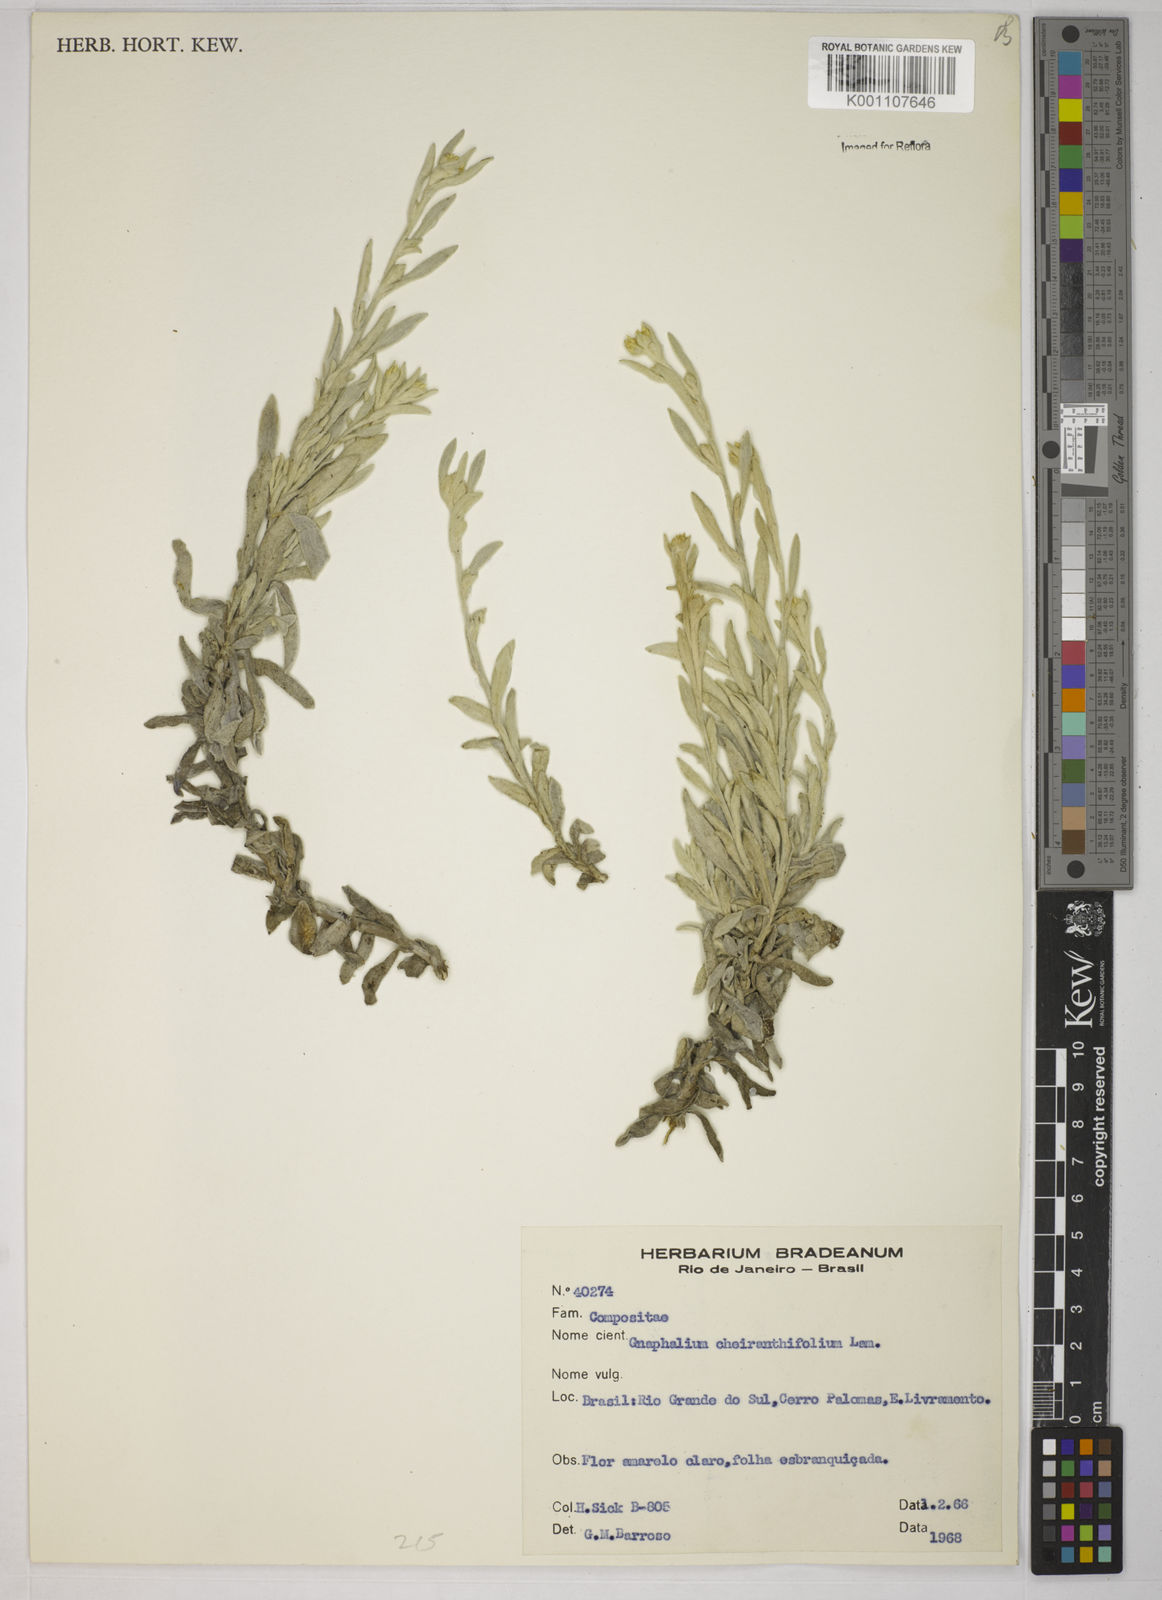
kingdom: Plantae
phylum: Tracheophyta
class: Magnoliopsida
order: Asterales
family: Asteraceae
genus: Pseudognaphalium
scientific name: Pseudognaphalium cheiranthifolium
